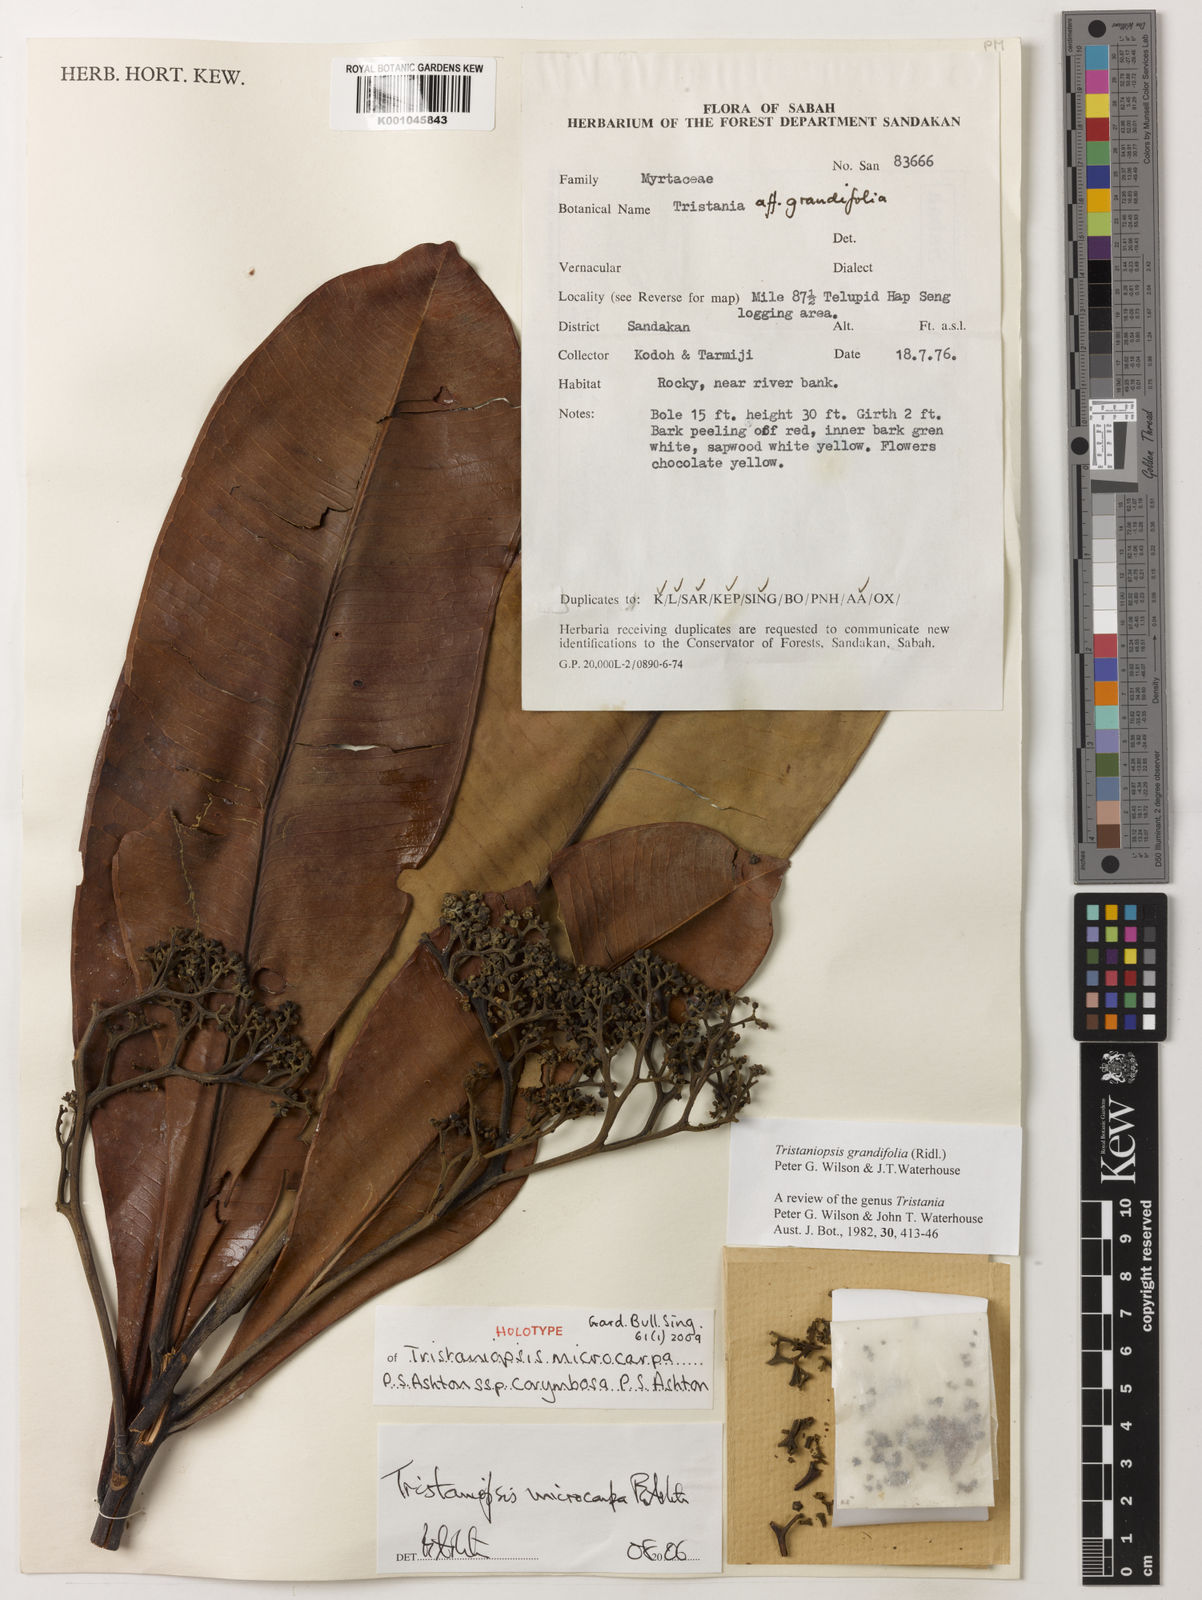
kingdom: Plantae
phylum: Tracheophyta
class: Magnoliopsida
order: Myrtales
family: Myrtaceae
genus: Tristaniopsis
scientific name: Tristaniopsis microcarpa
